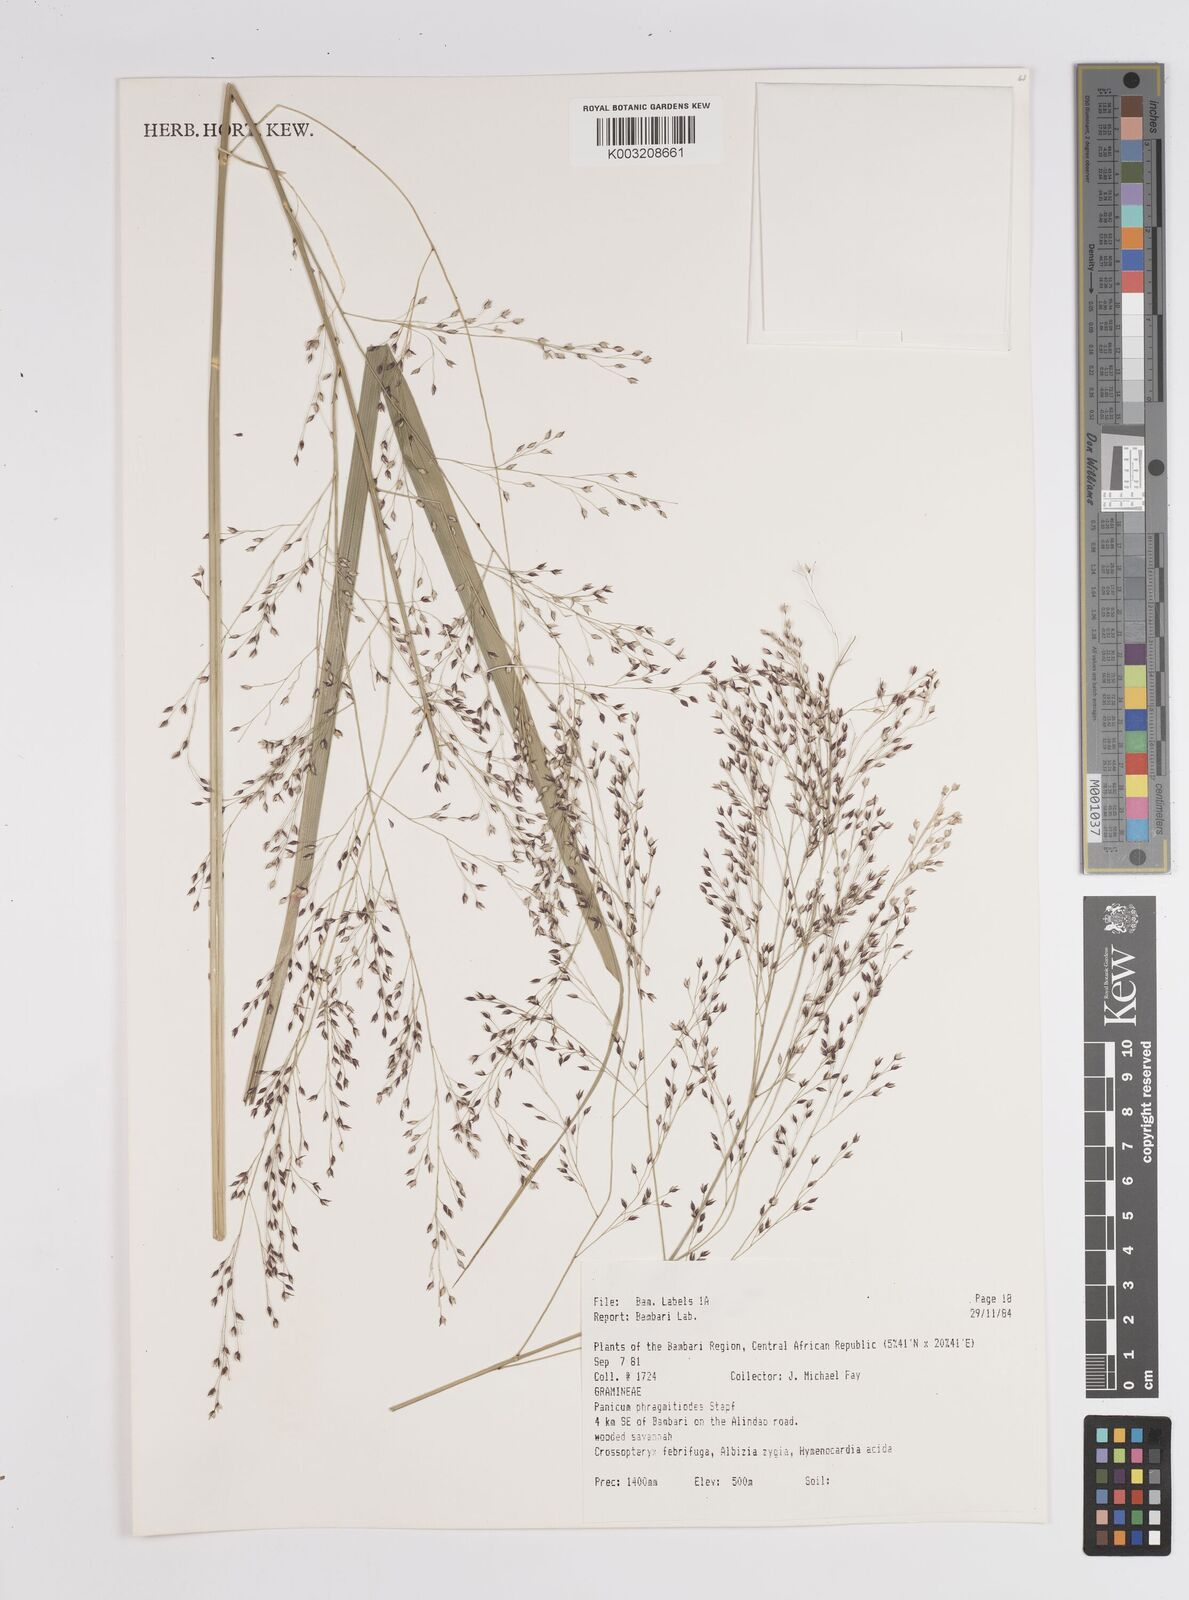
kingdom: Plantae
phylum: Tracheophyta
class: Liliopsida
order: Poales
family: Poaceae
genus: Panicum
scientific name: Panicum phragmitoides
